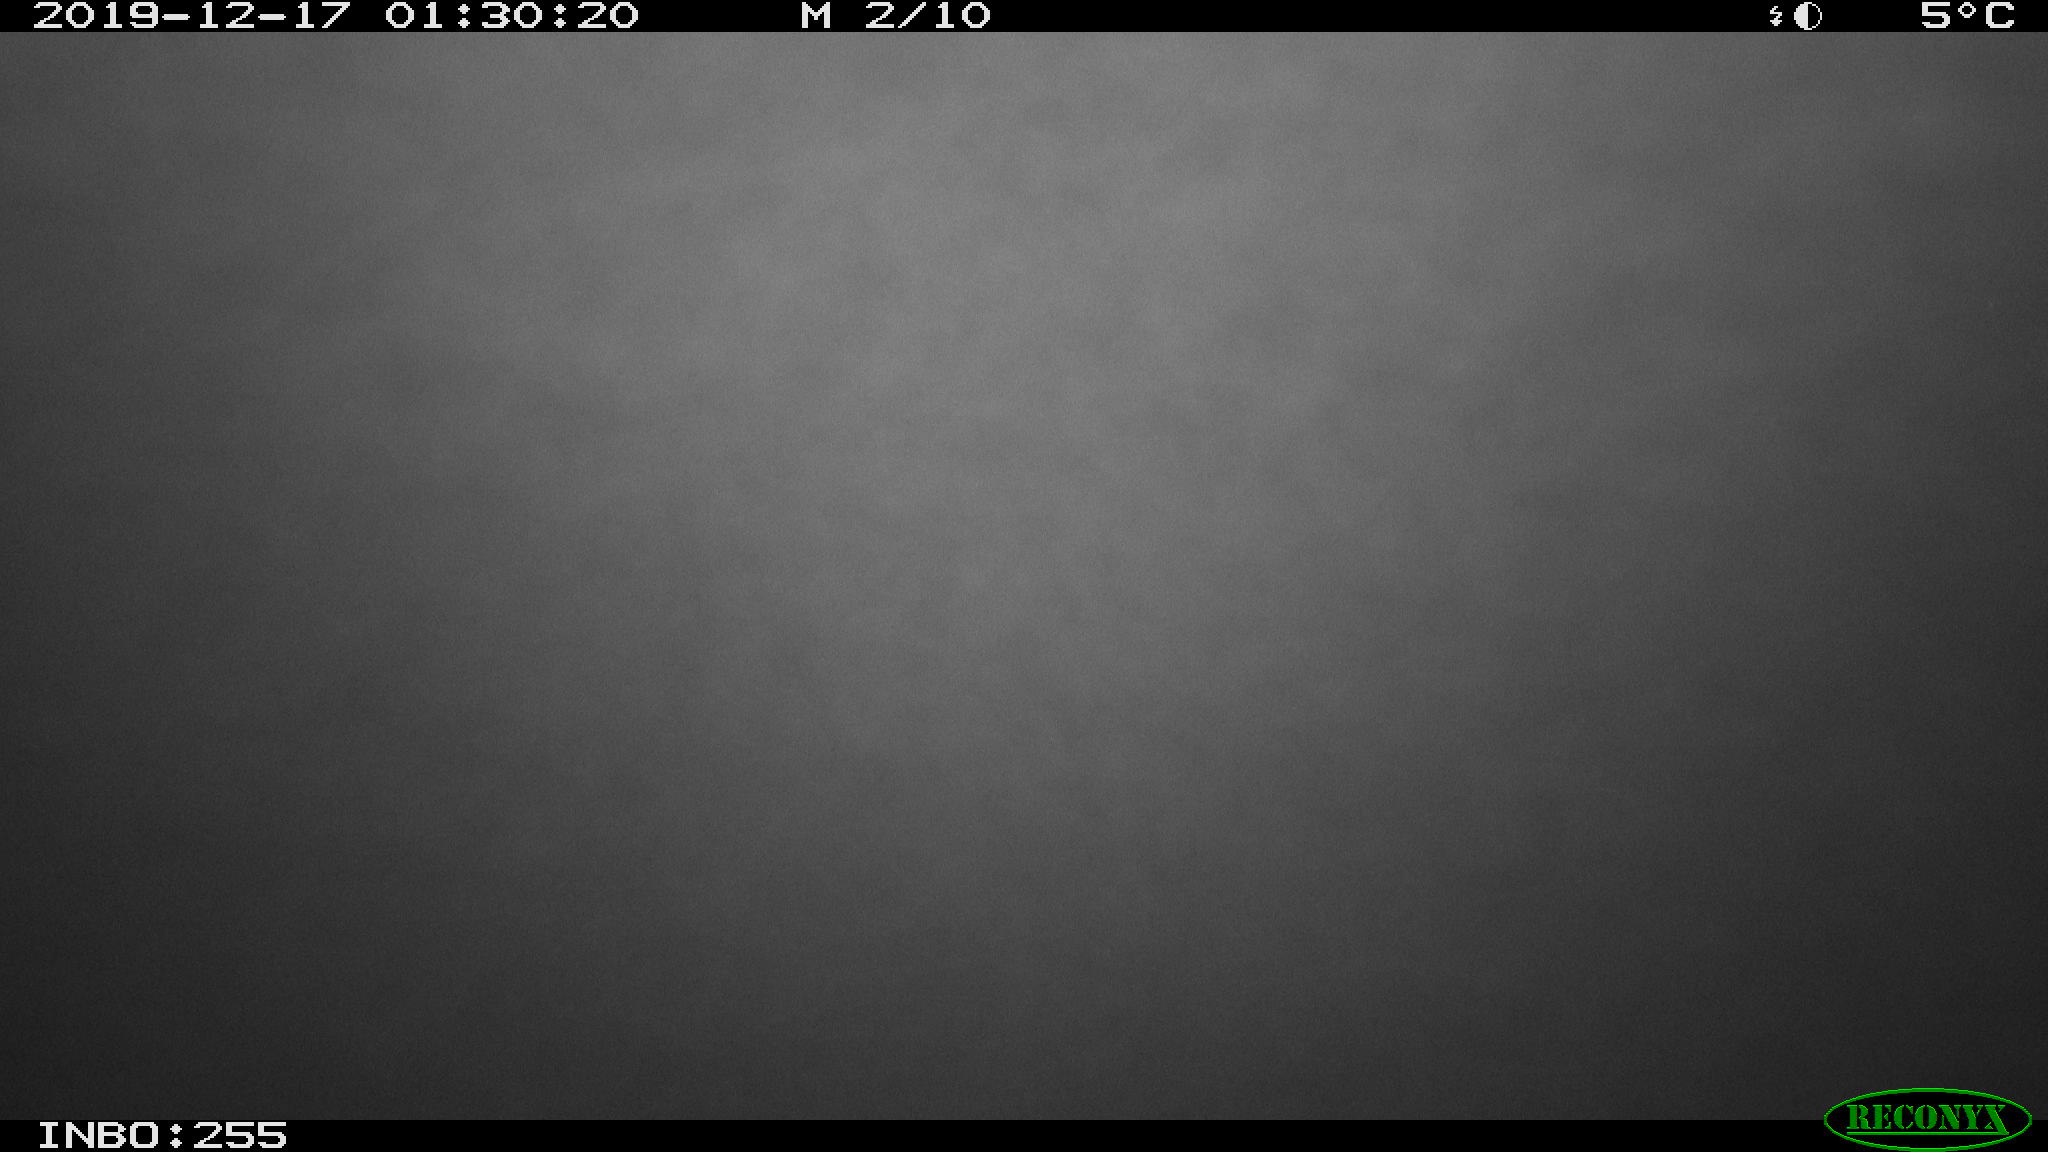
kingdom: Animalia
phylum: Chordata
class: Mammalia
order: Rodentia
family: Cricetidae
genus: Ondatra
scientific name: Ondatra zibethicus
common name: Muskrat
